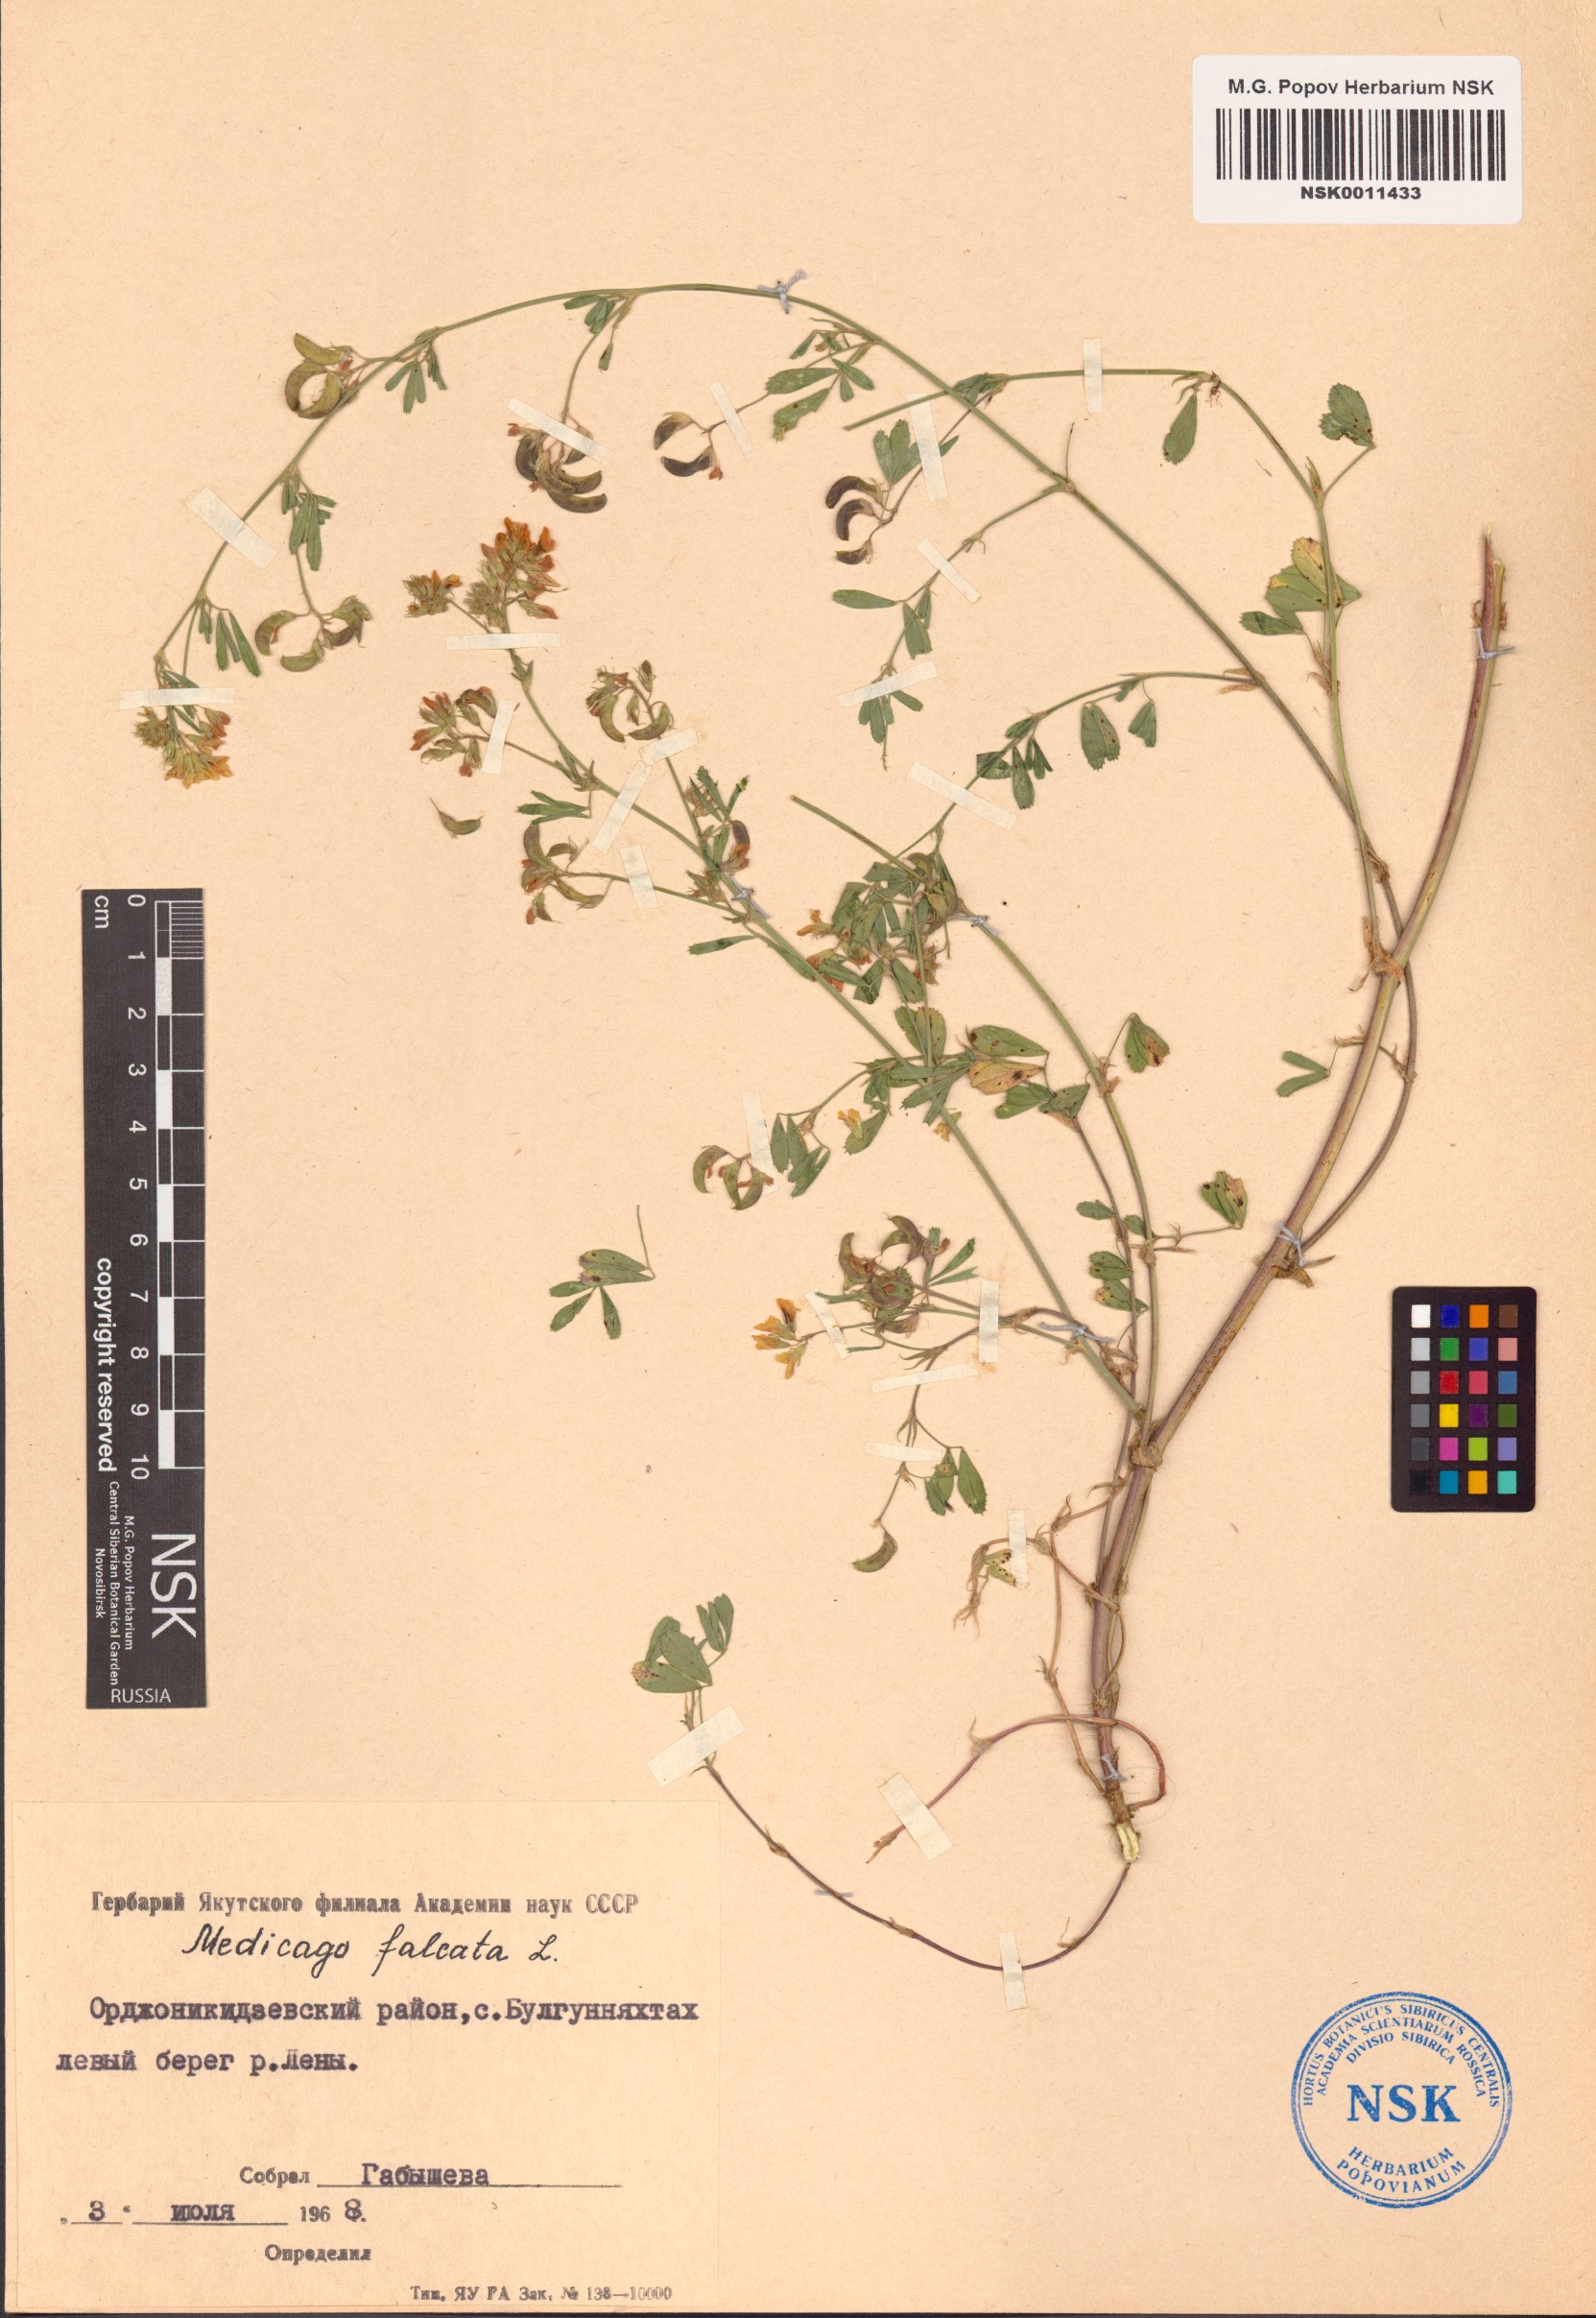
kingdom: Plantae
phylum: Tracheophyta
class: Magnoliopsida
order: Fabales
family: Fabaceae
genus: Medicago
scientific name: Medicago falcata
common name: Sickle medick
